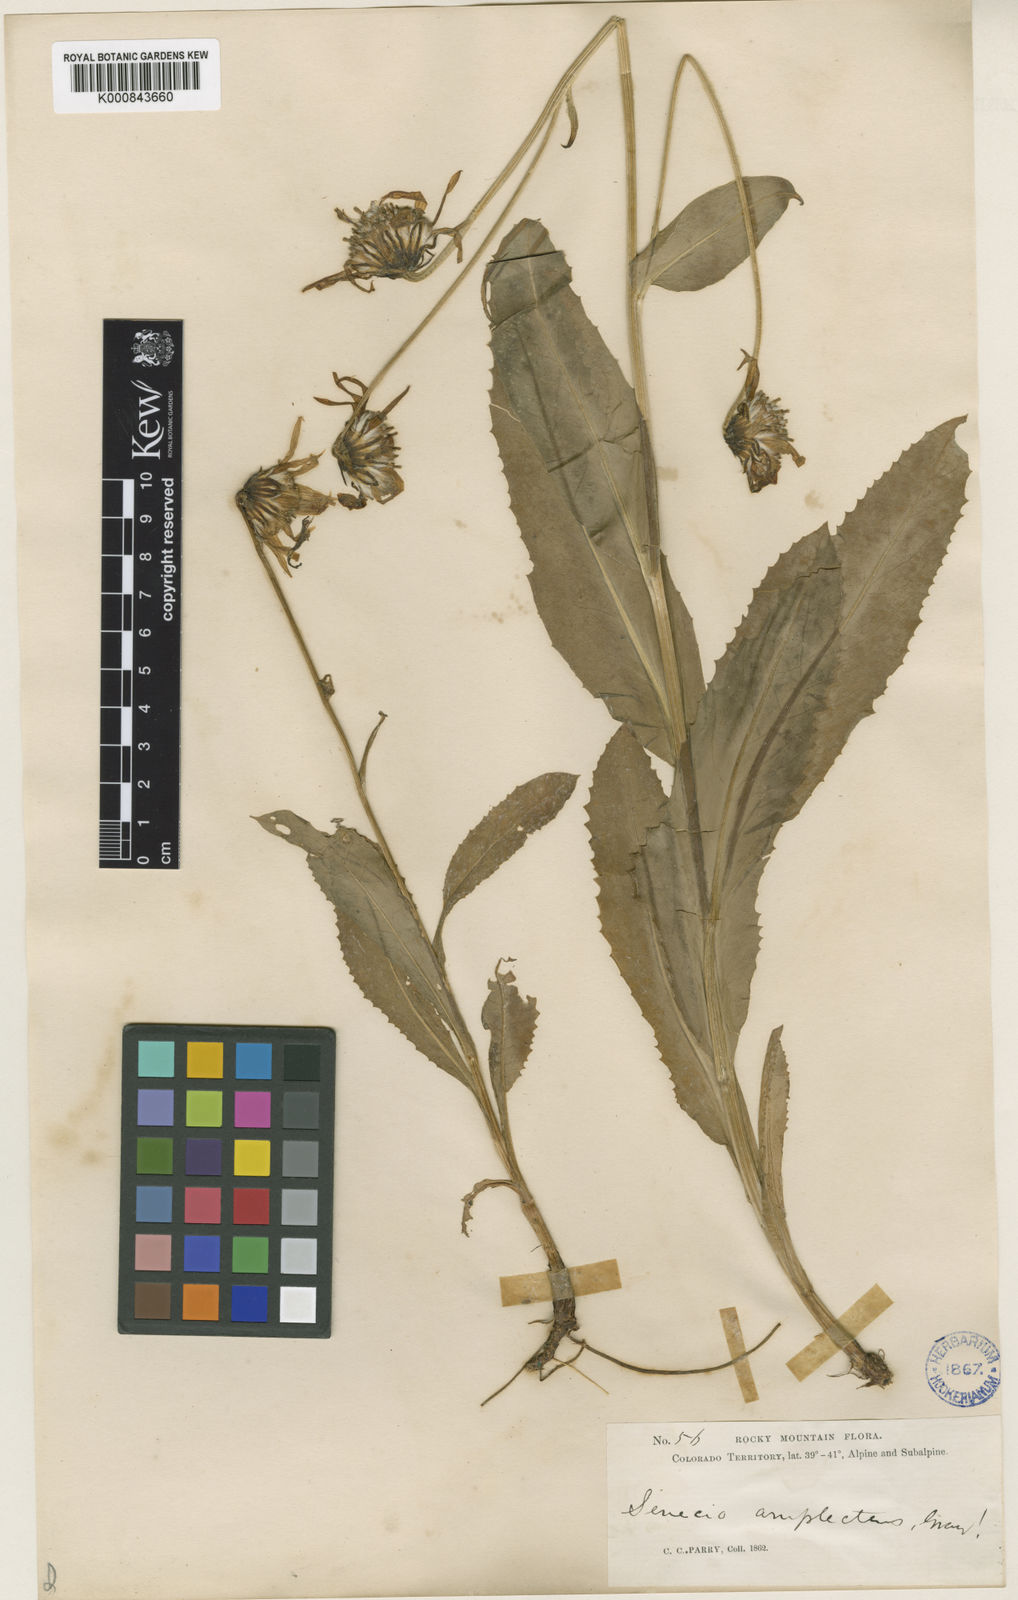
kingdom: Plantae
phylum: Tracheophyta
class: Magnoliopsida
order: Asterales
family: Asteraceae
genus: Senecio
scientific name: Senecio amplectens
